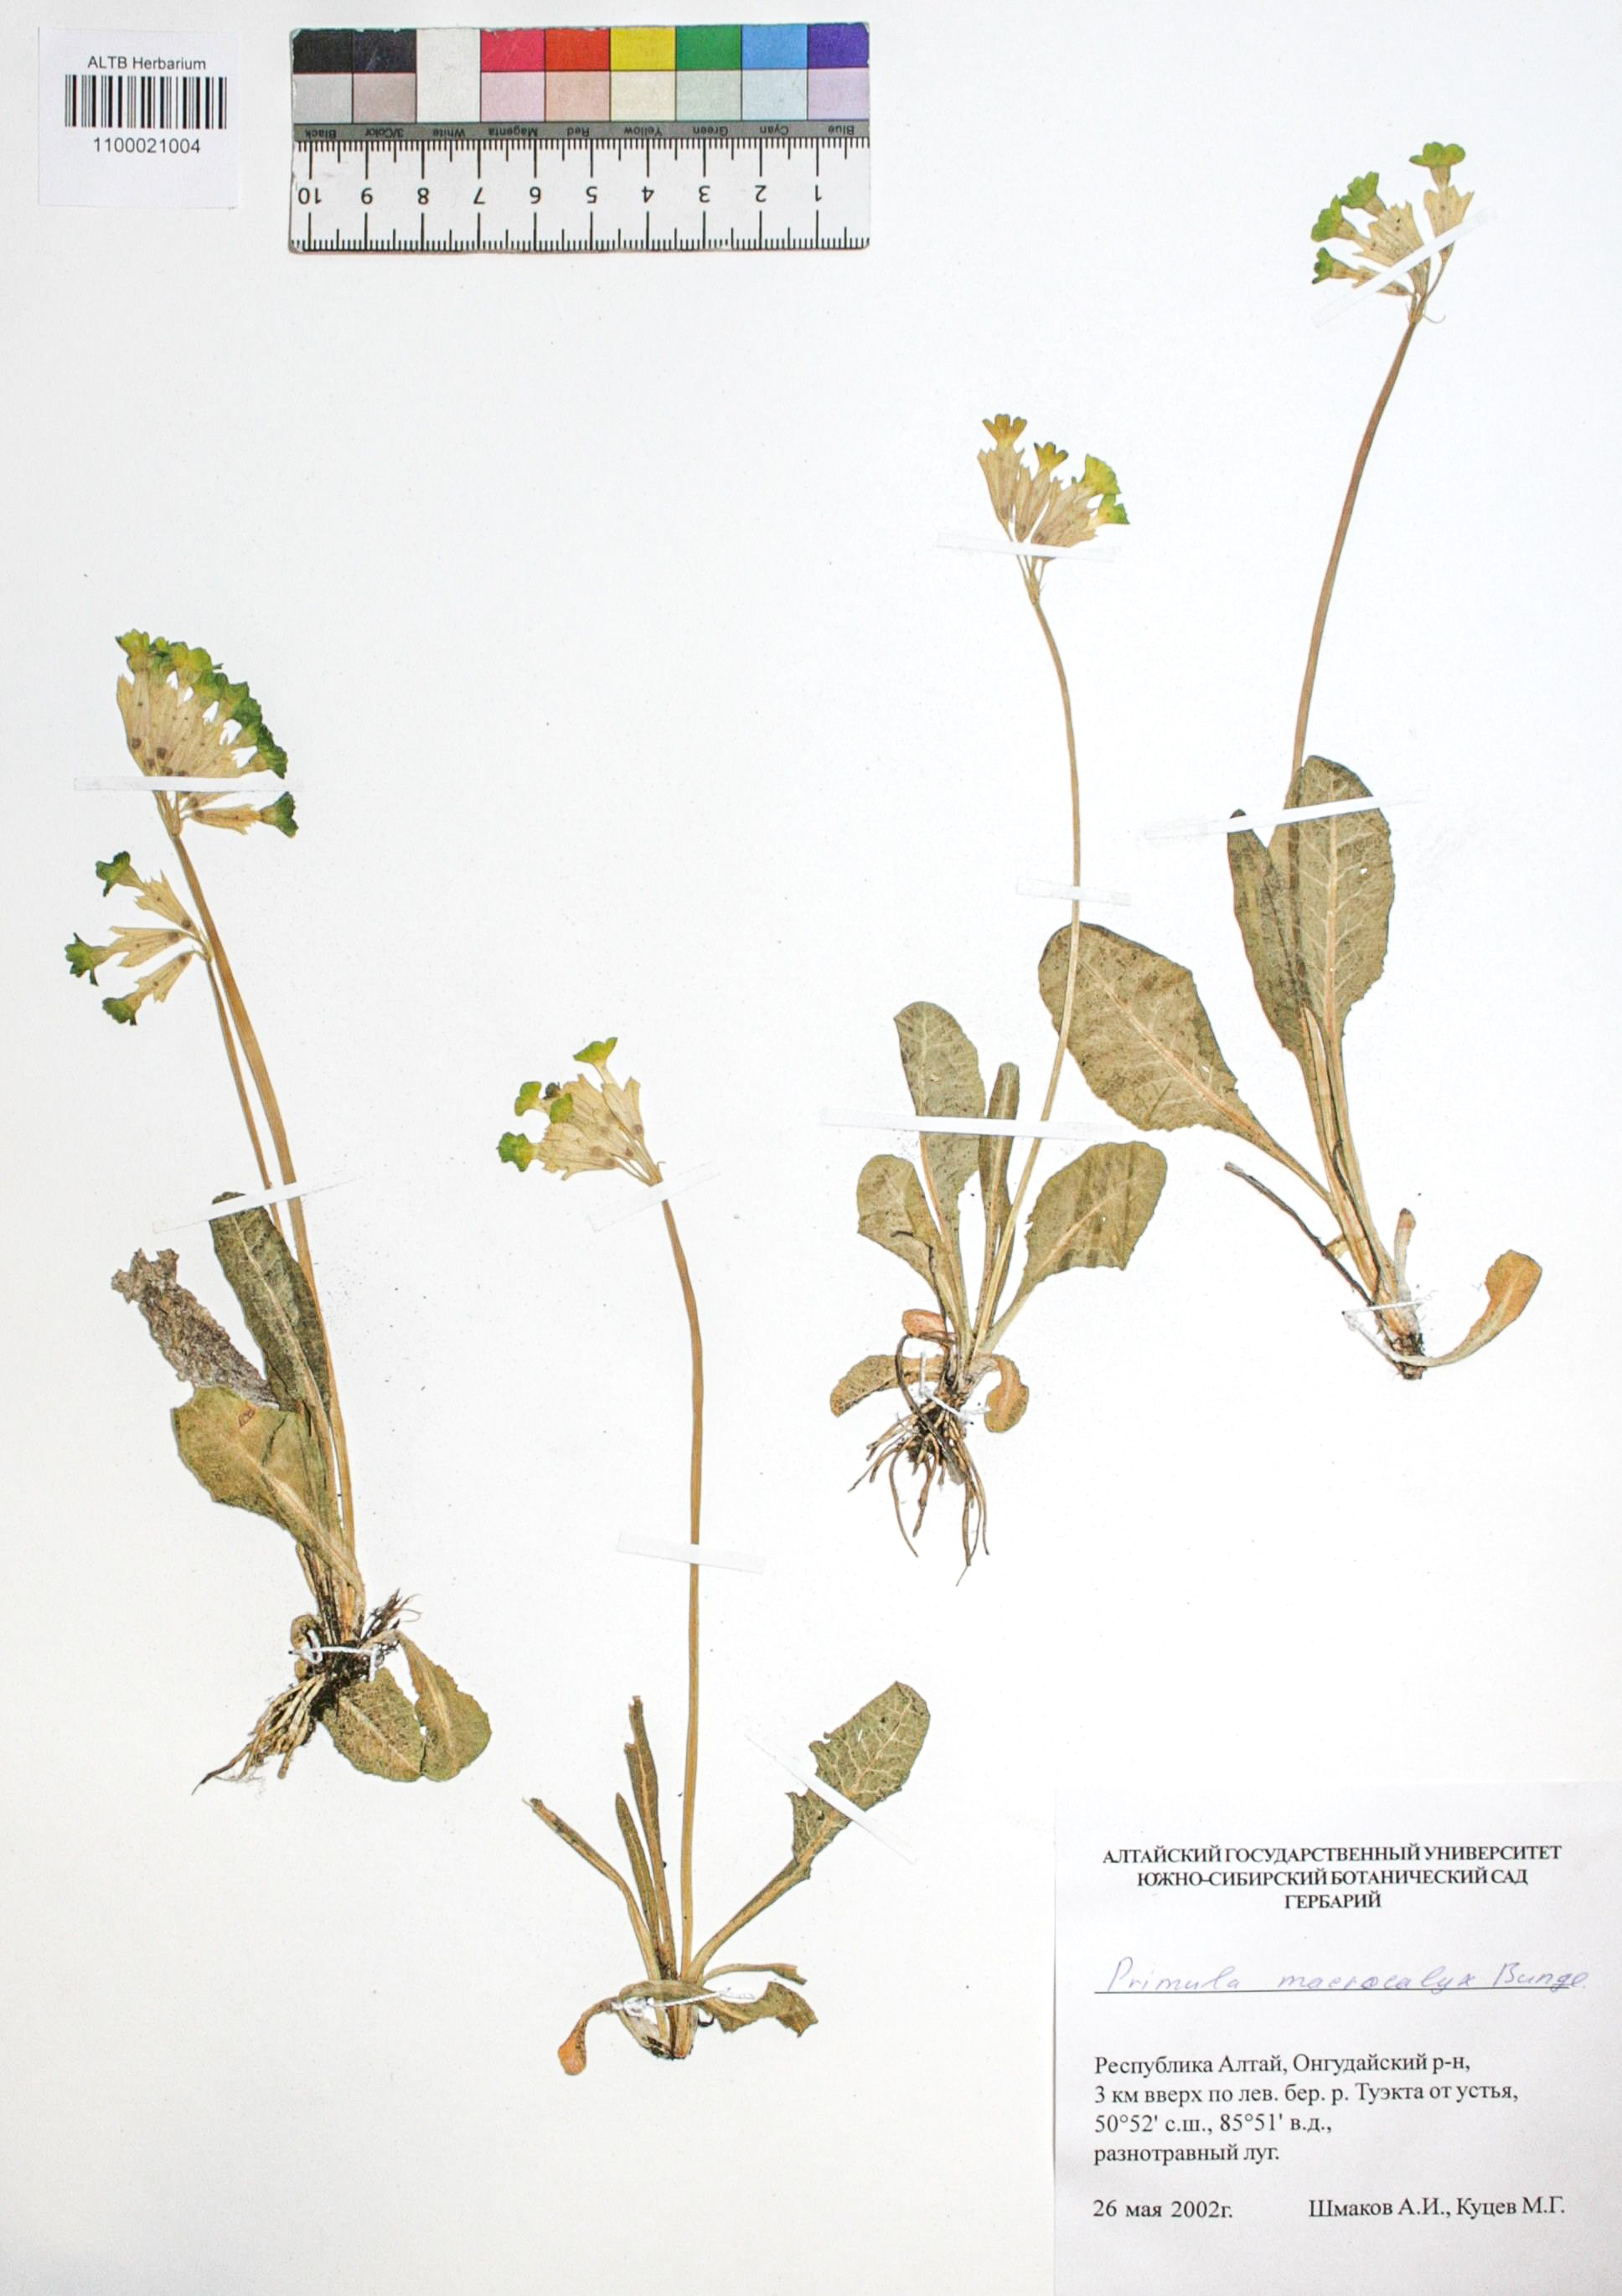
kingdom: Plantae
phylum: Tracheophyta
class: Magnoliopsida
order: Ericales
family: Primulaceae
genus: Primula
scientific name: Primula veris
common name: Cowslip
